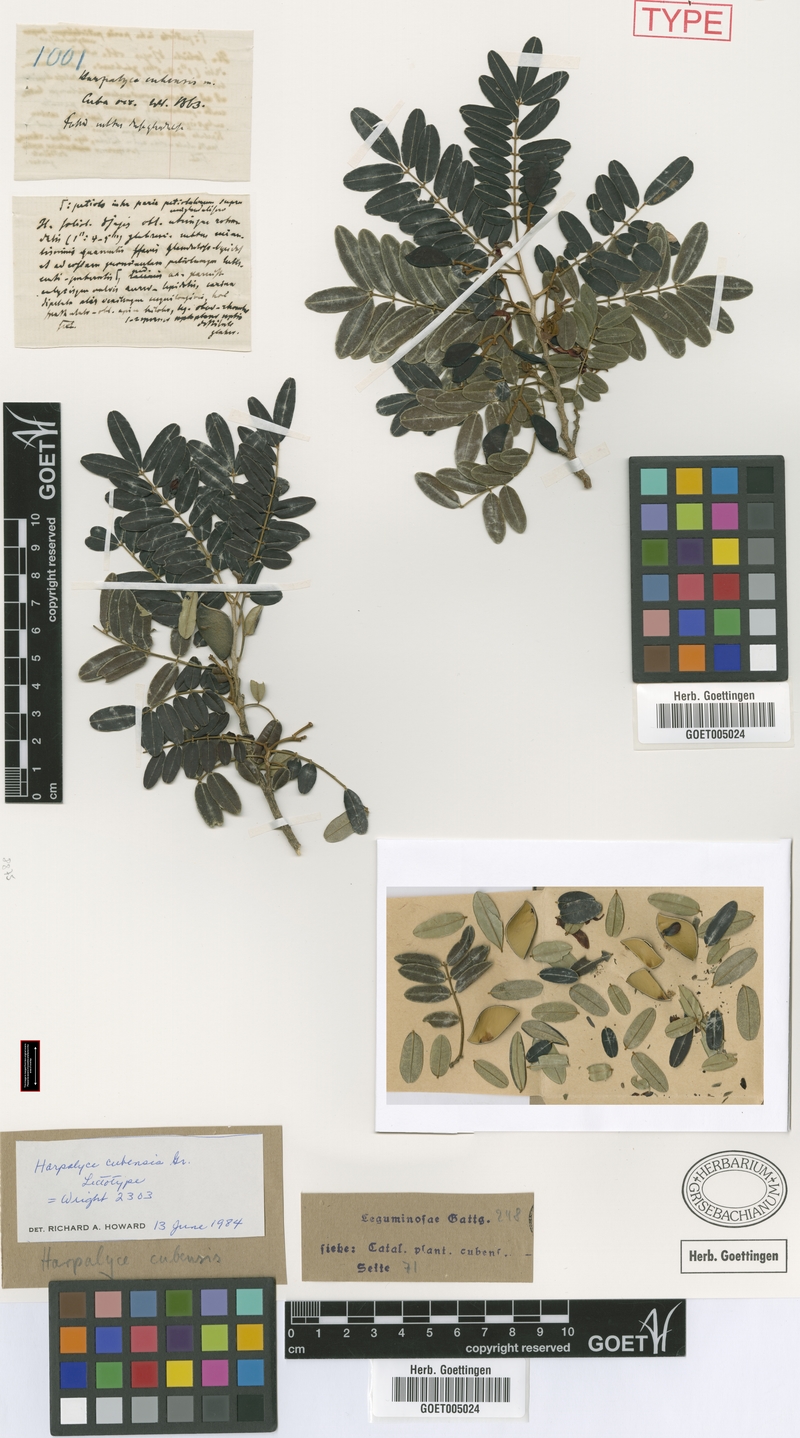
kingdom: Plantae
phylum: Tracheophyta
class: Magnoliopsida
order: Fabales
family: Fabaceae
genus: Harpalyce
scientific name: Harpalyce cubensis
